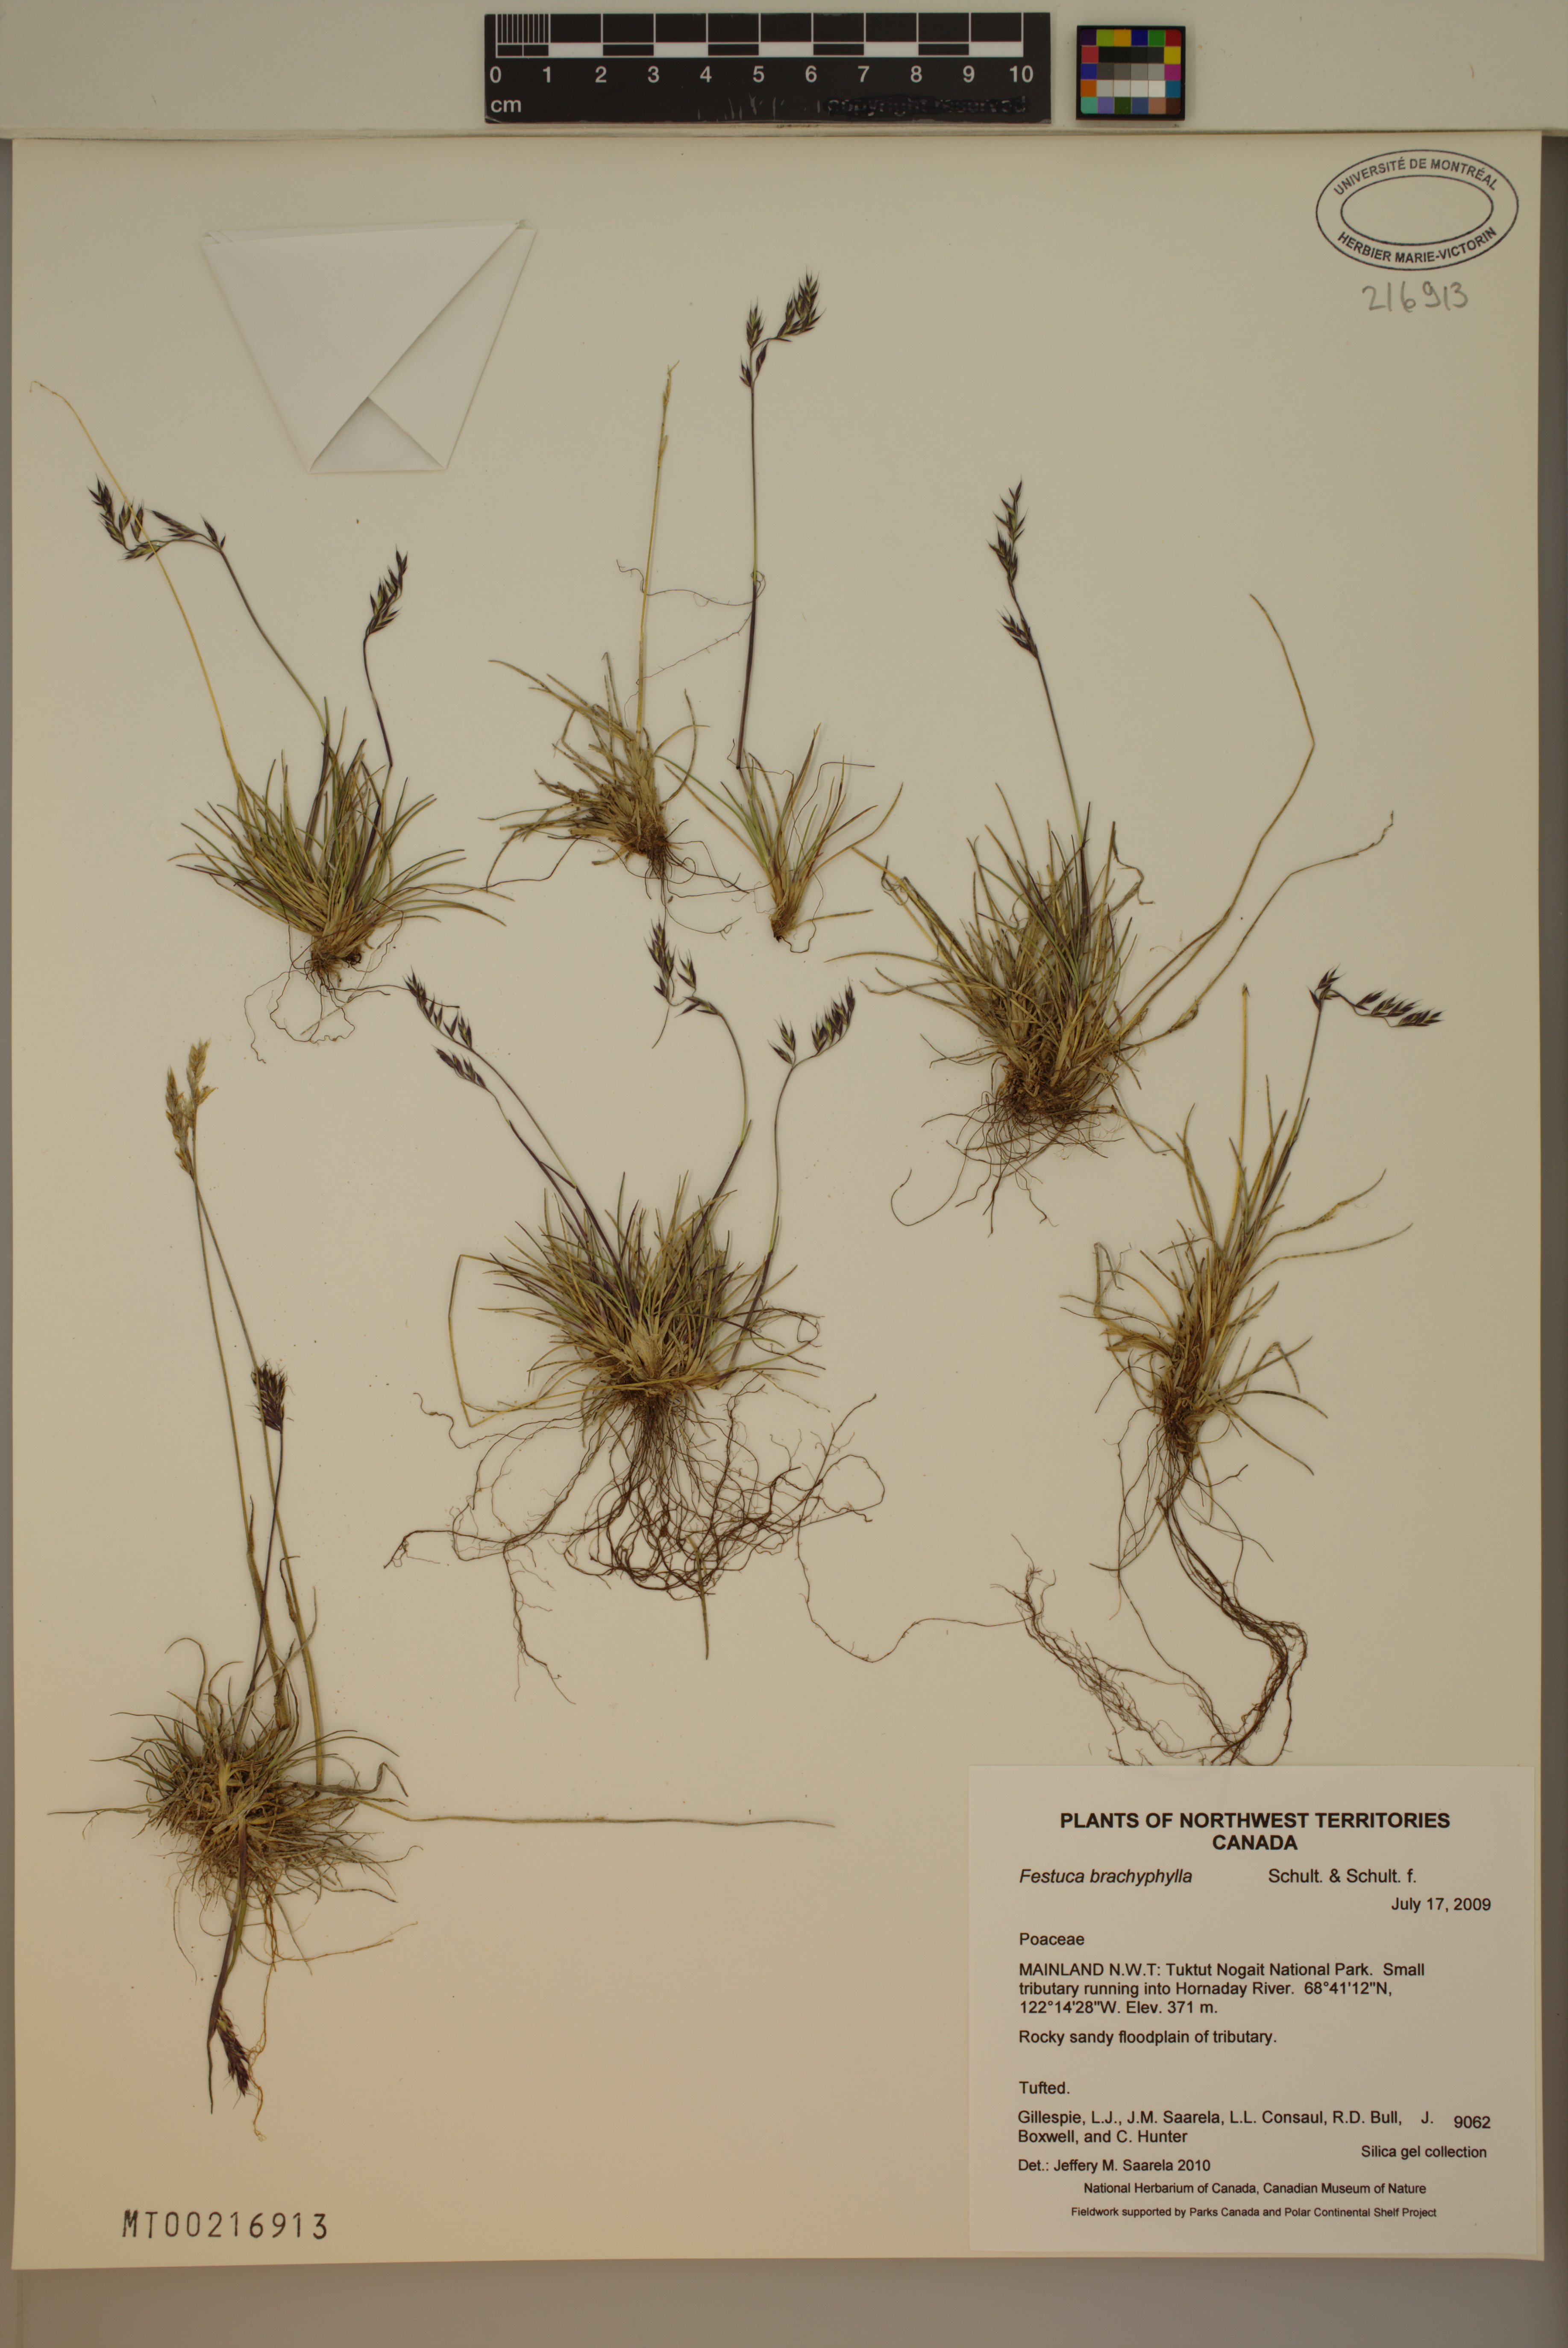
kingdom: Plantae
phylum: Tracheophyta
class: Liliopsida
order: Poales
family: Poaceae
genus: Festuca
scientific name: Festuca brachyphylla
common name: Alpine fescue
